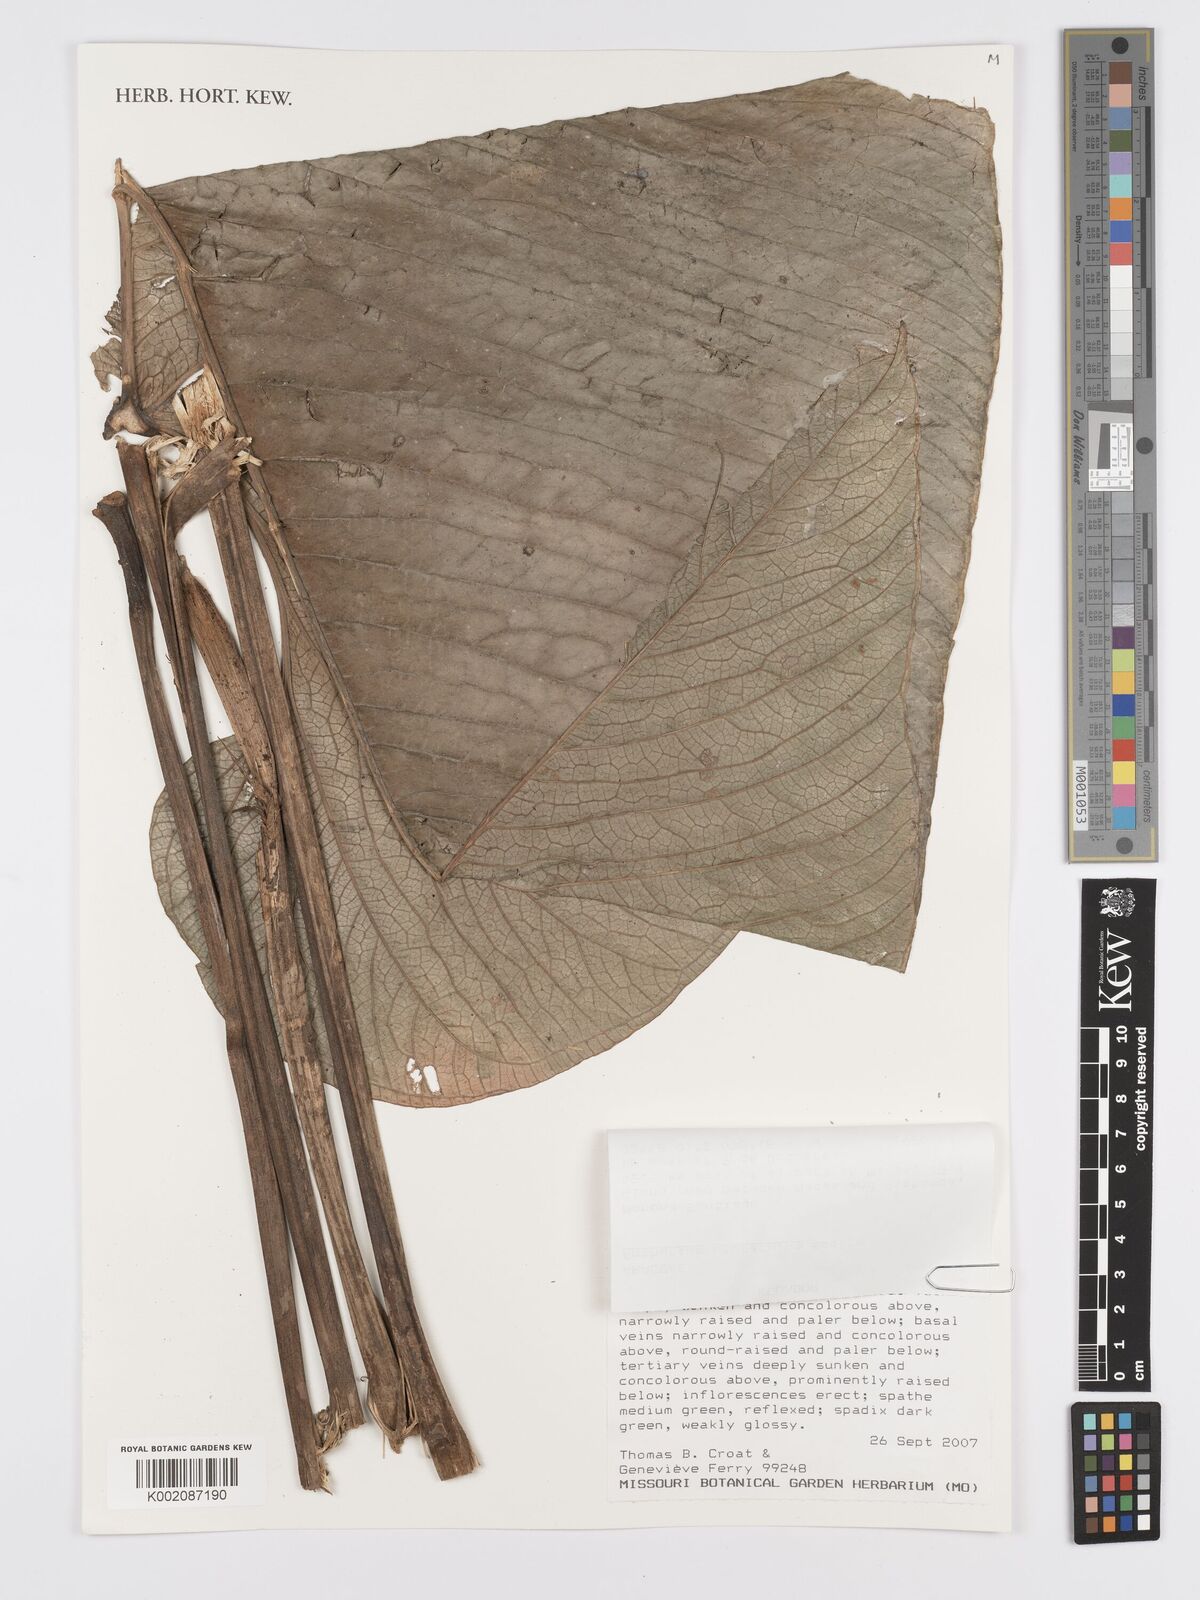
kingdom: Plantae
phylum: Tracheophyta
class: Liliopsida
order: Alismatales
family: Araceae
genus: Anthurium
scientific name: Anthurium umbraculum
